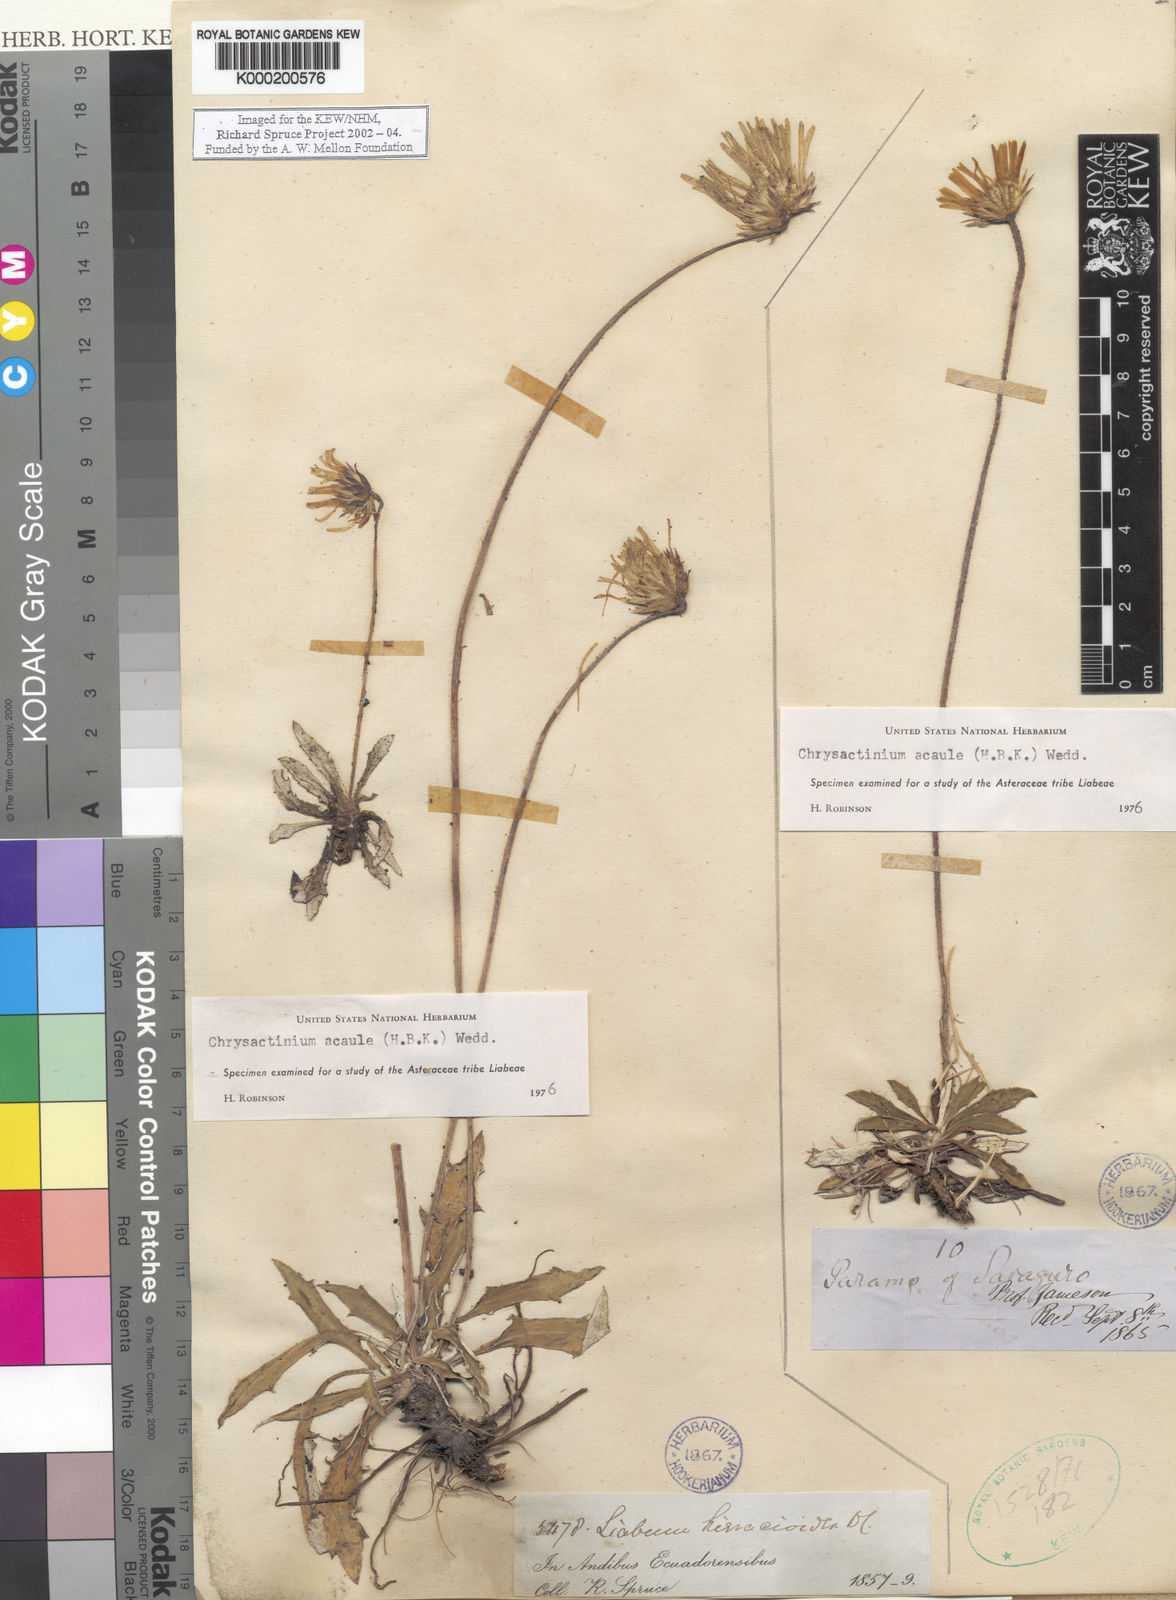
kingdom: Plantae
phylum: Tracheophyta
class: Magnoliopsida
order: Asterales
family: Asteraceae
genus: Chrysactinium
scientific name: Chrysactinium acaule
